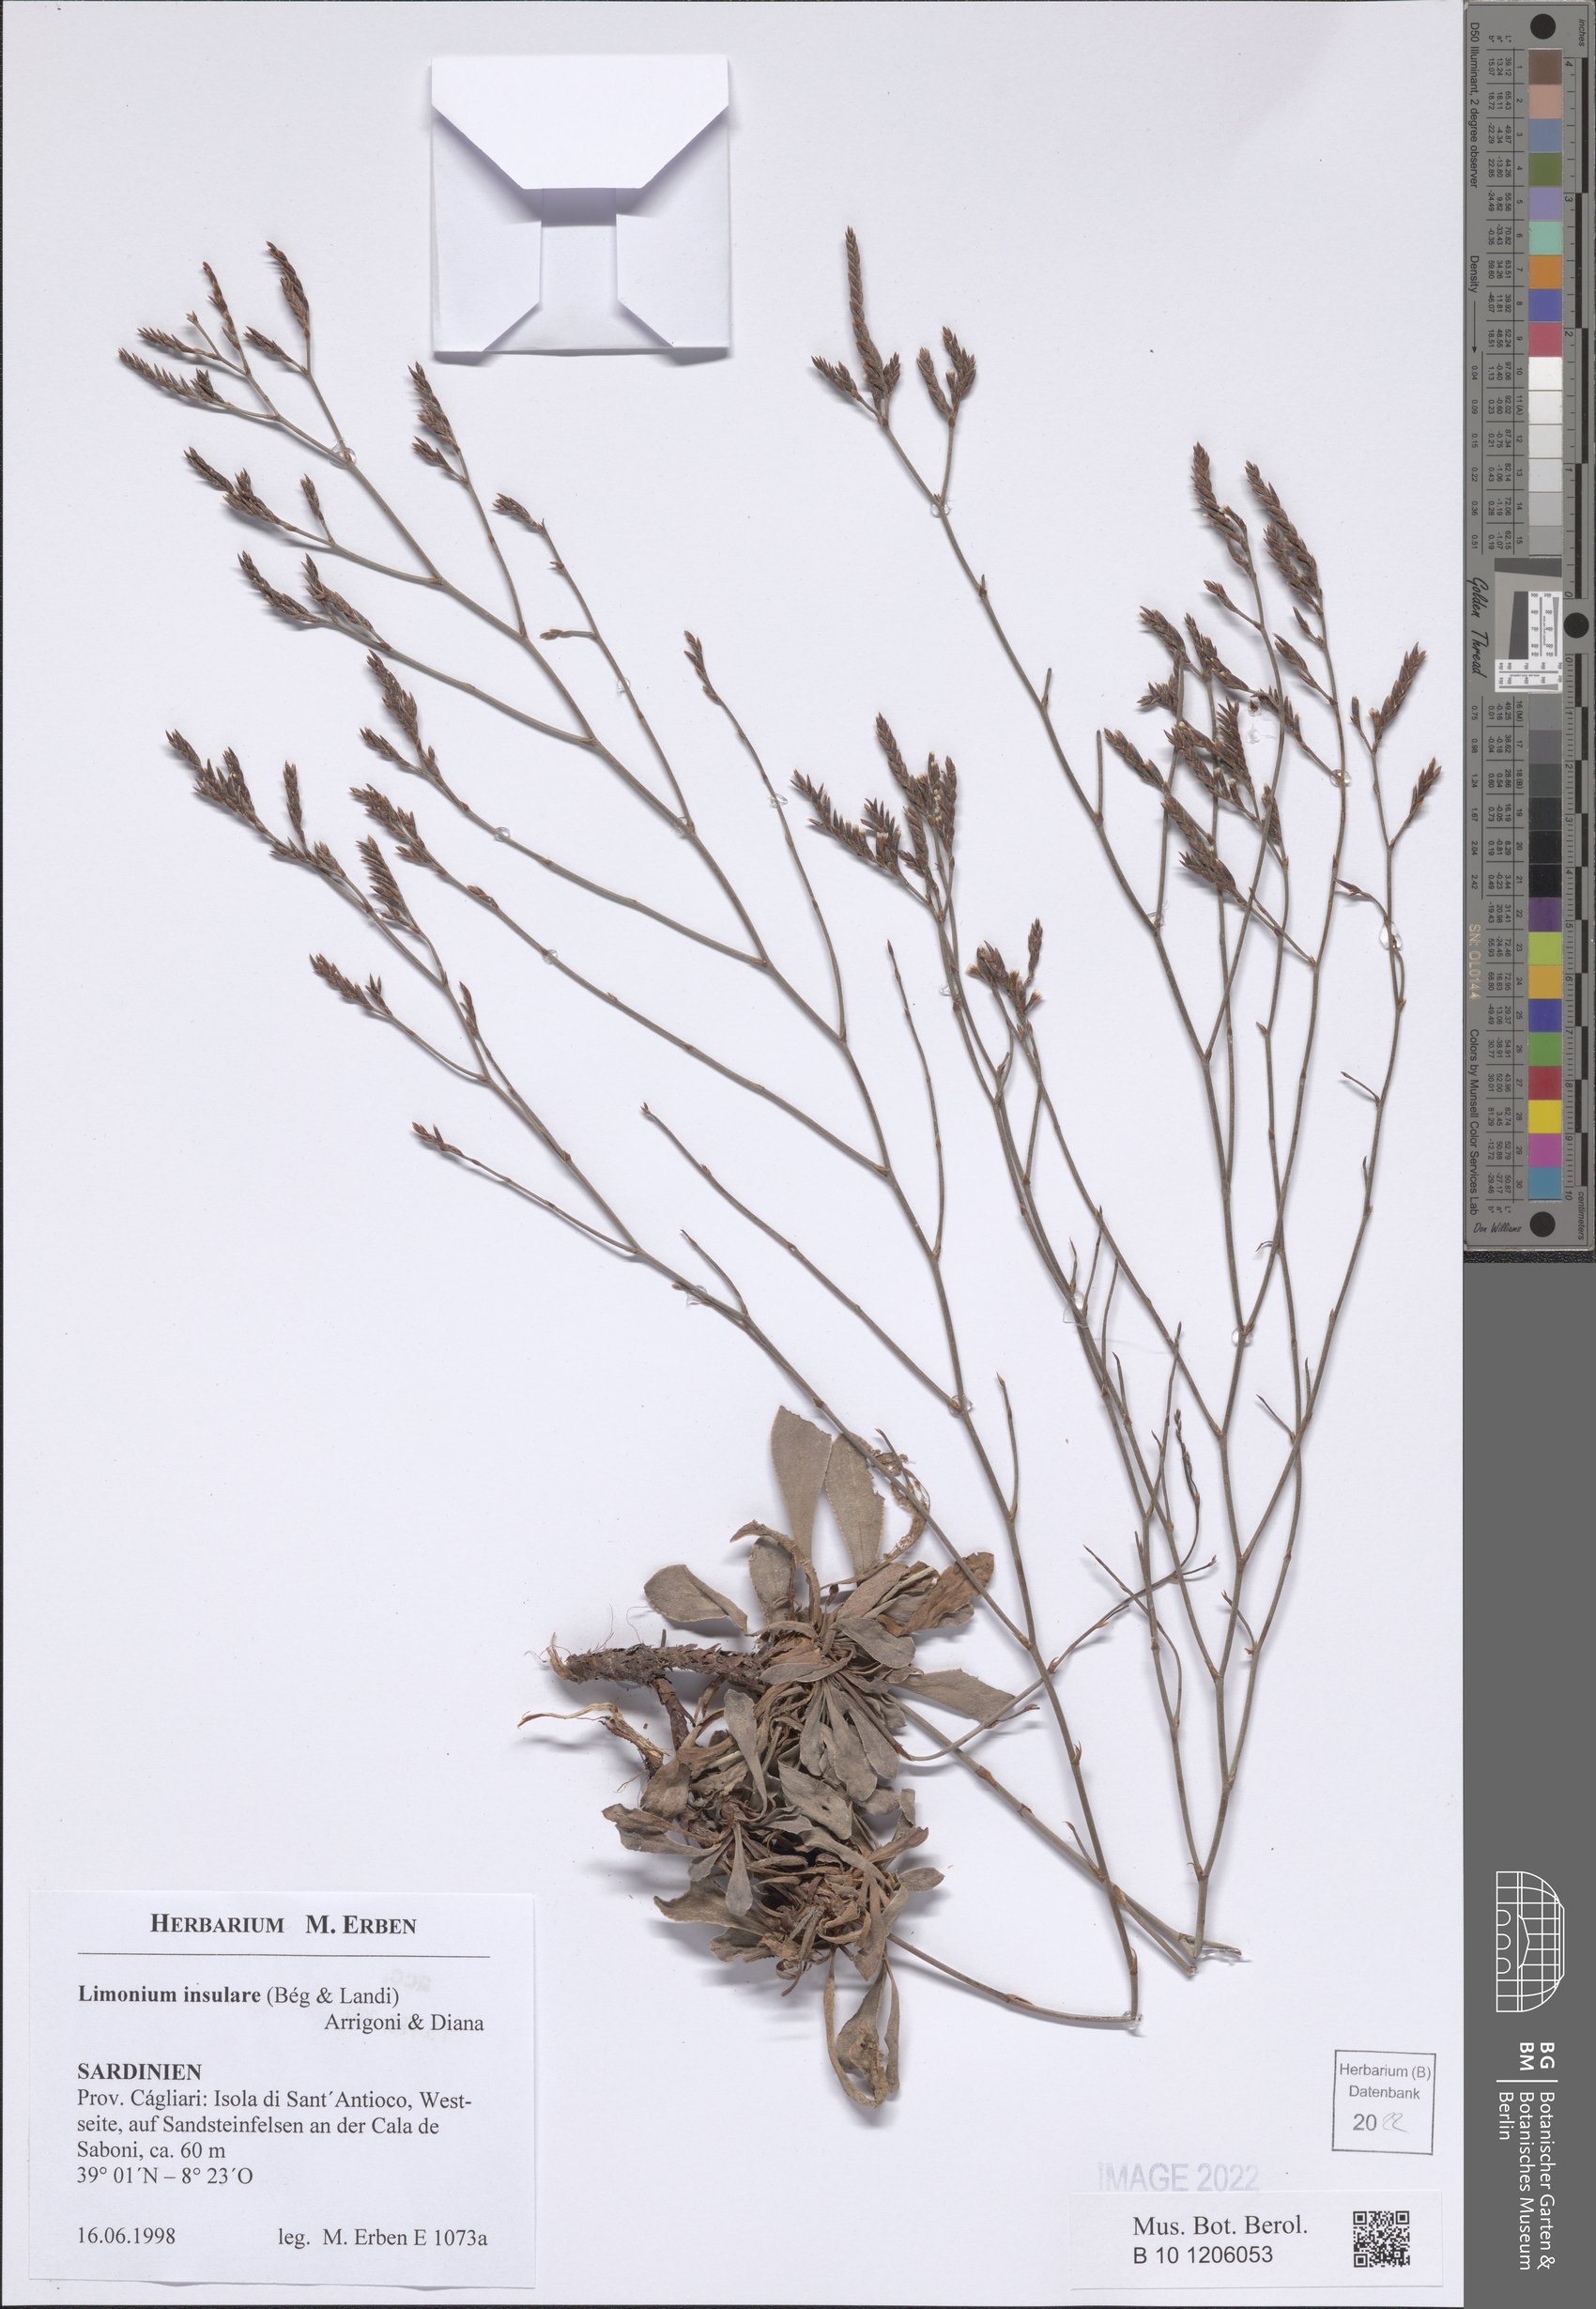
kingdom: Plantae
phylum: Tracheophyta
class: Magnoliopsida
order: Caryophyllales
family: Plumbaginaceae
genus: Limonium
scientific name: Limonium insulare
